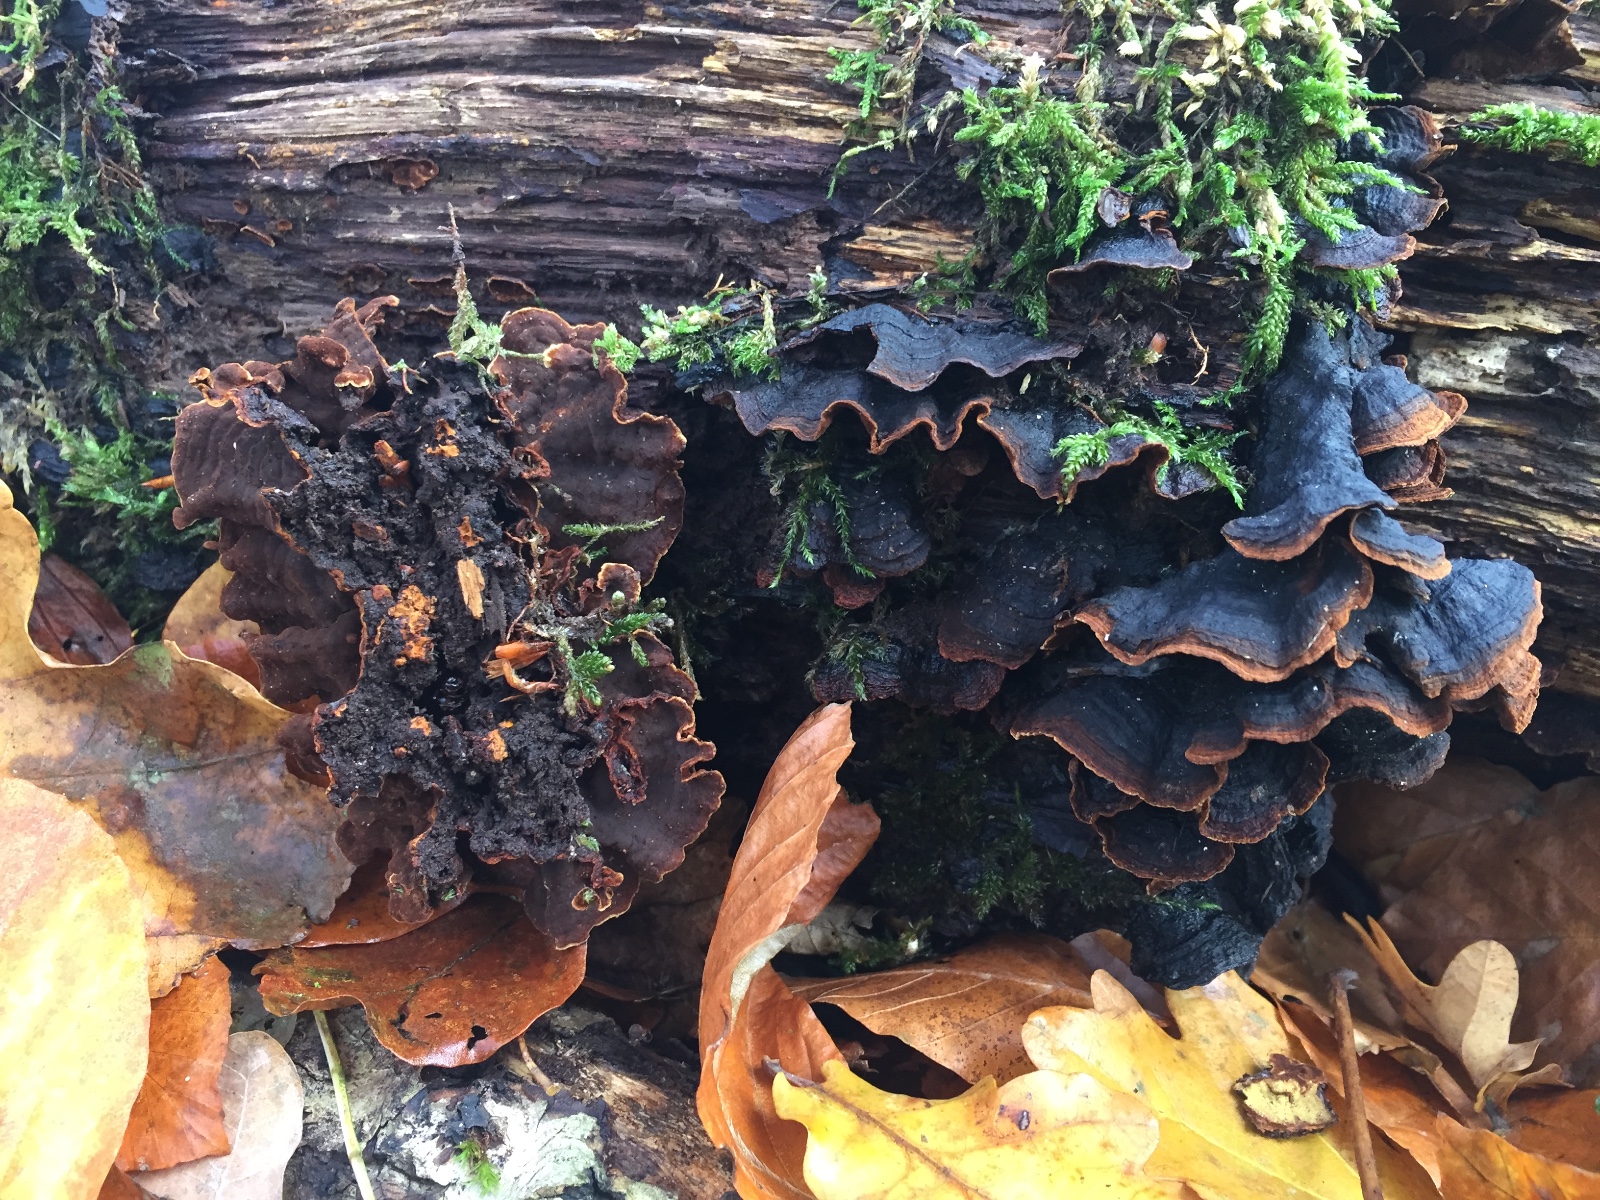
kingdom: Fungi
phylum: Basidiomycota
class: Agaricomycetes
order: Hymenochaetales
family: Hymenochaetaceae
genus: Hymenochaete
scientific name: Hymenochaete rubiginosa
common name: stiv ruslædersvamp
